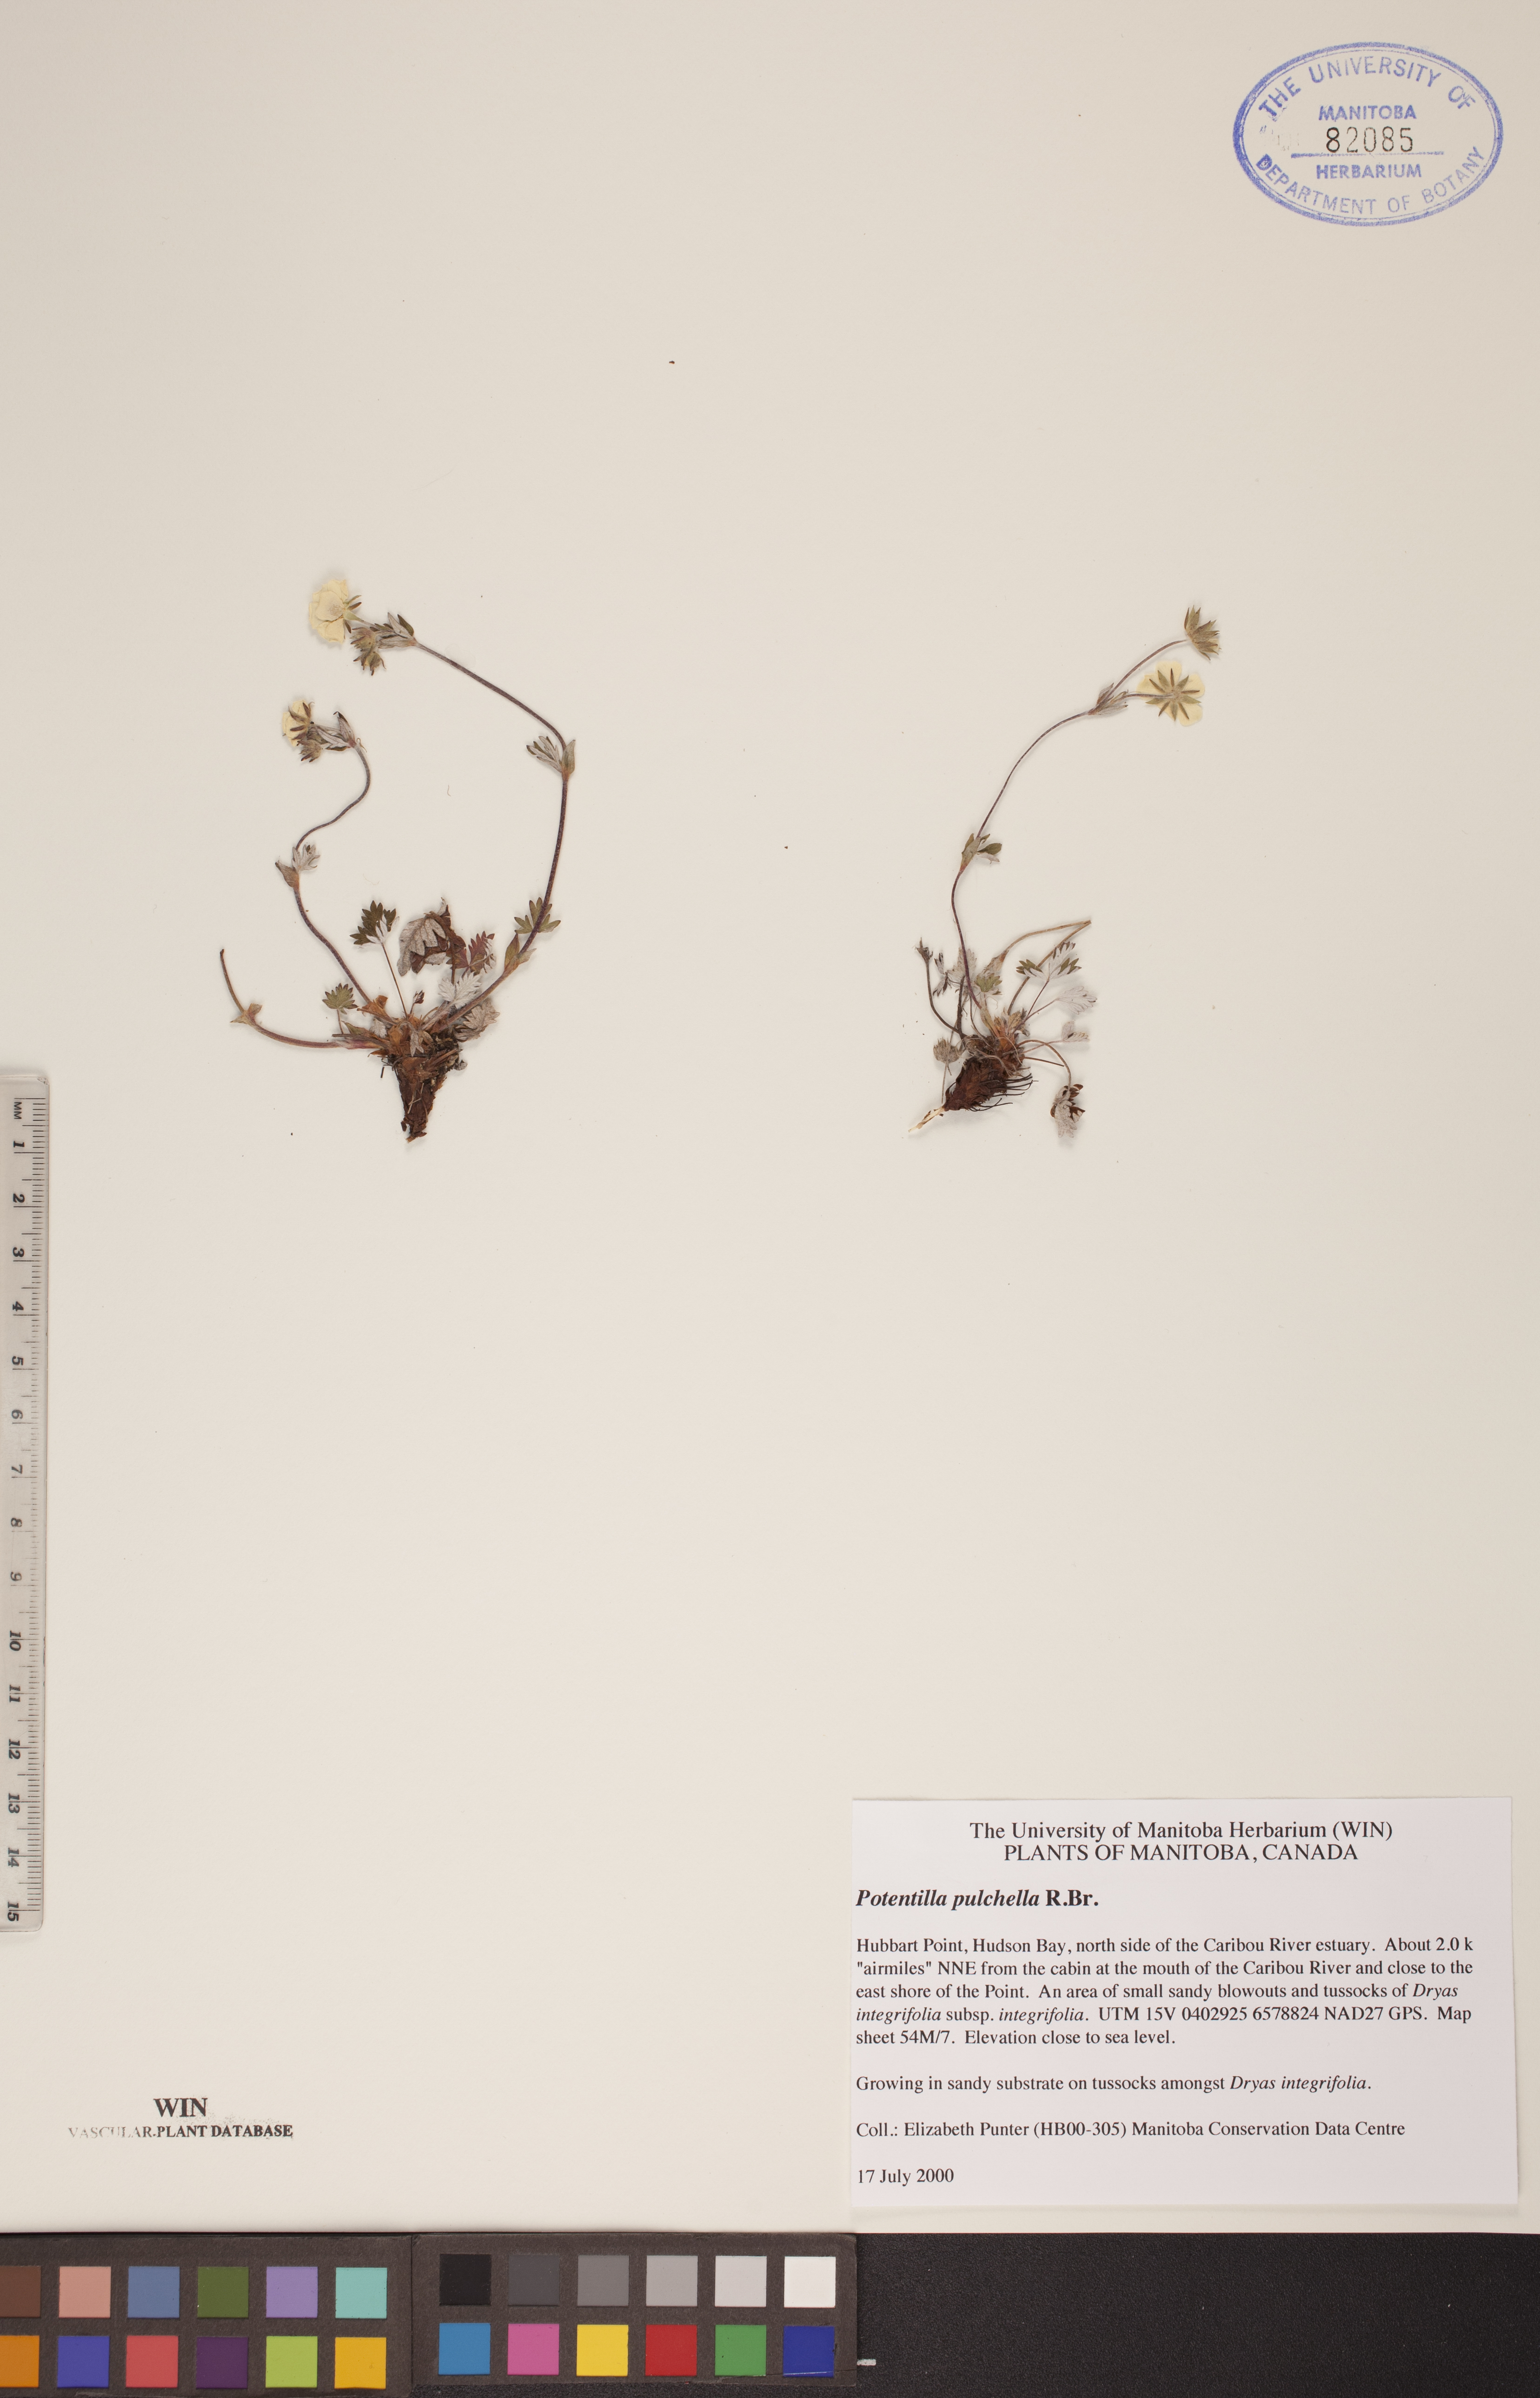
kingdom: Plantae
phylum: Tracheophyta
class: Magnoliopsida
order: Rosales
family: Rosaceae
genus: Potentilla
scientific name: Potentilla pulchella
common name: Pretty cinquefoil
